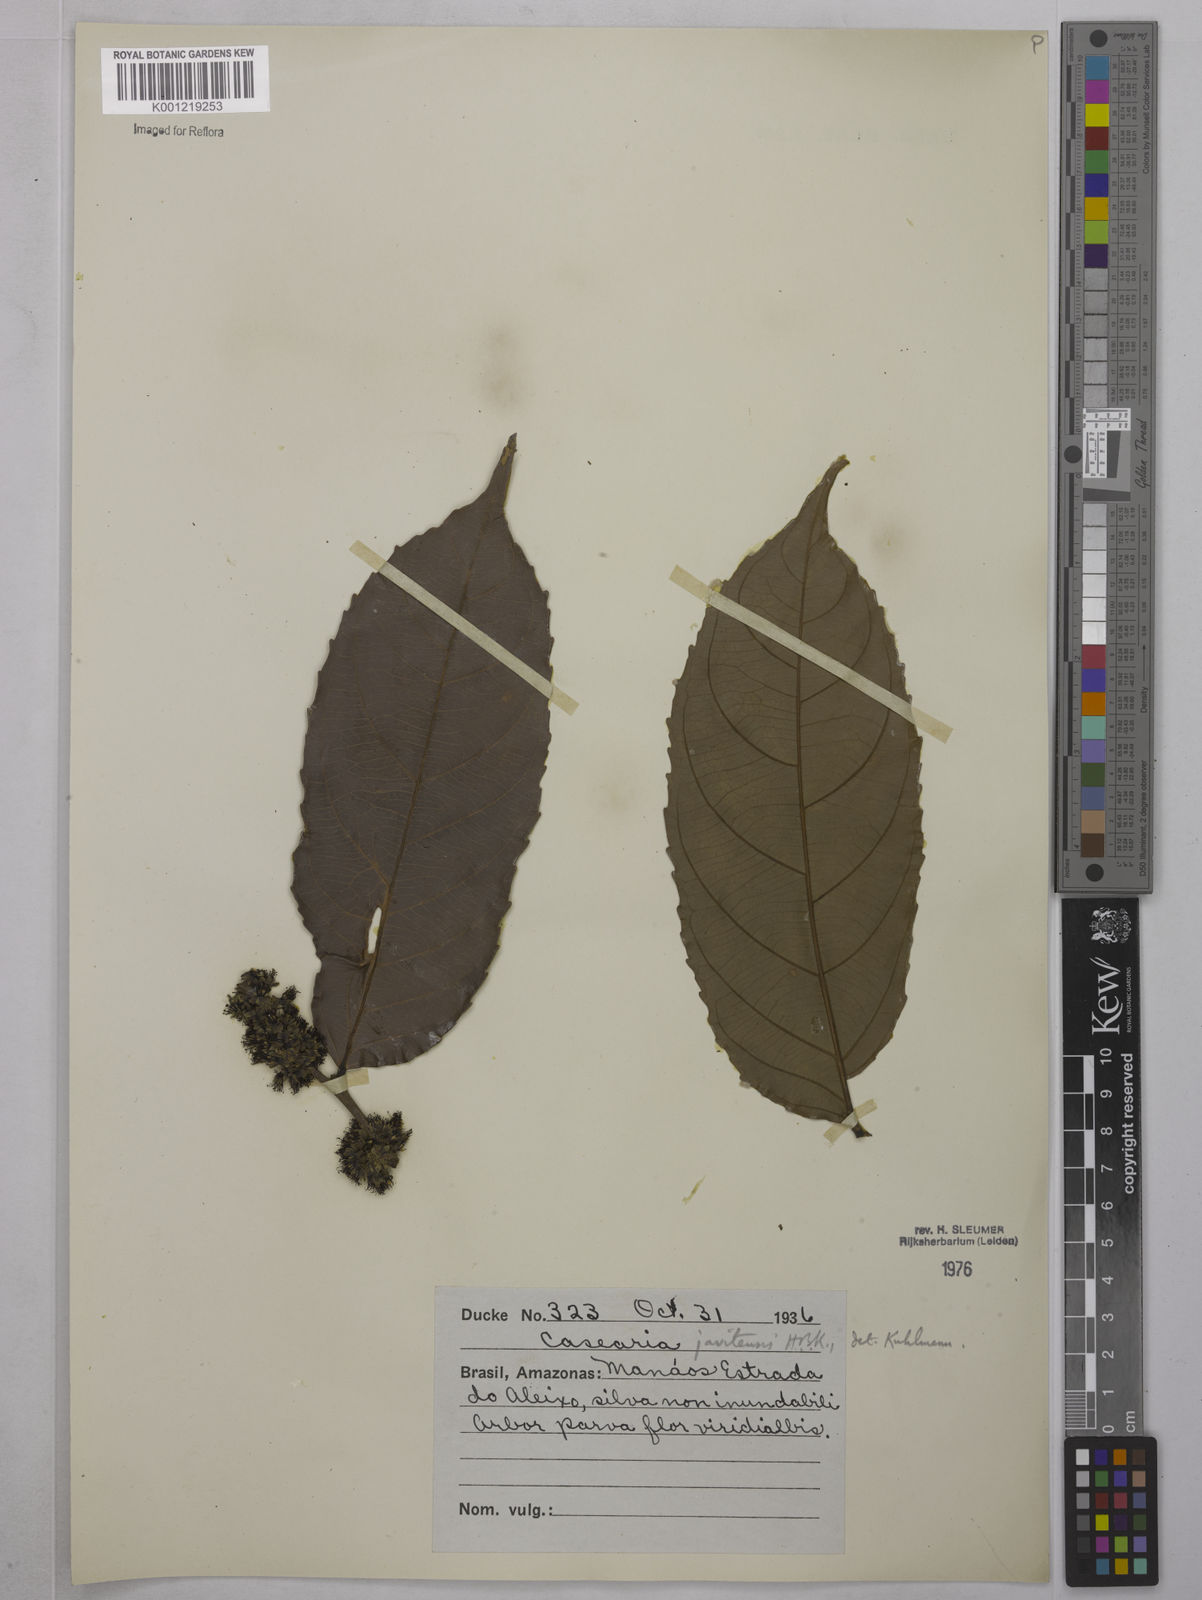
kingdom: Plantae
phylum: Tracheophyta
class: Magnoliopsida
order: Malpighiales
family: Salicaceae
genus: Piparea
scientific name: Piparea multiflora
